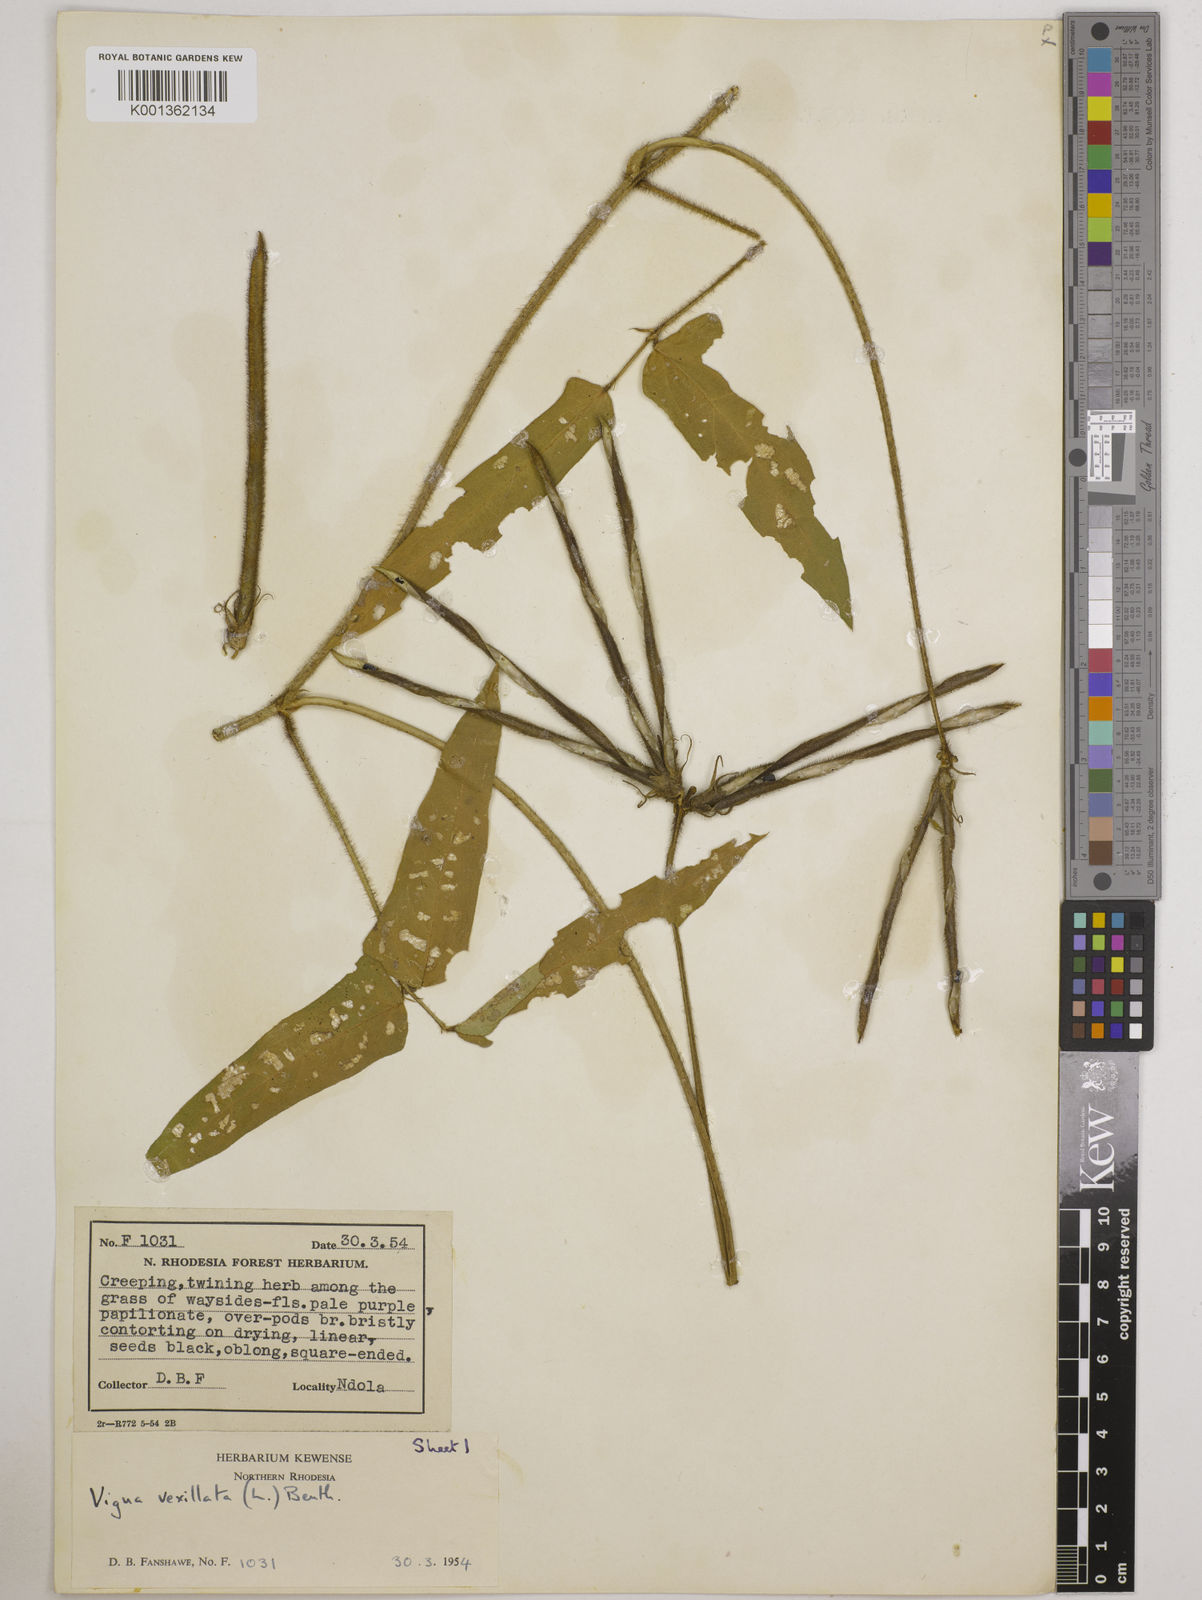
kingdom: Plantae
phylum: Tracheophyta
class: Magnoliopsida
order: Fabales
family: Fabaceae
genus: Vigna
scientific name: Vigna vexillata
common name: Zombi pea
